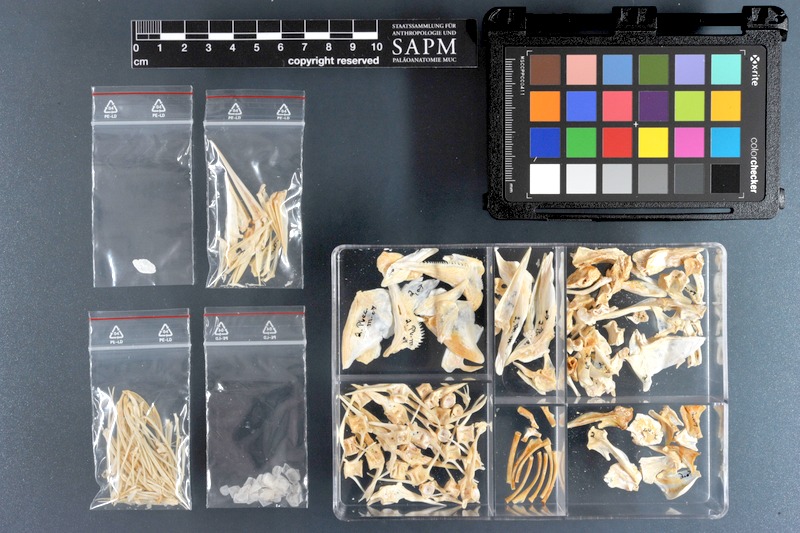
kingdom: Animalia
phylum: Chordata
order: Perciformes
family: Haemulidae
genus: Plectorhinchus
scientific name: Plectorhinchus mediterraneus
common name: Rubber-lip grunt
